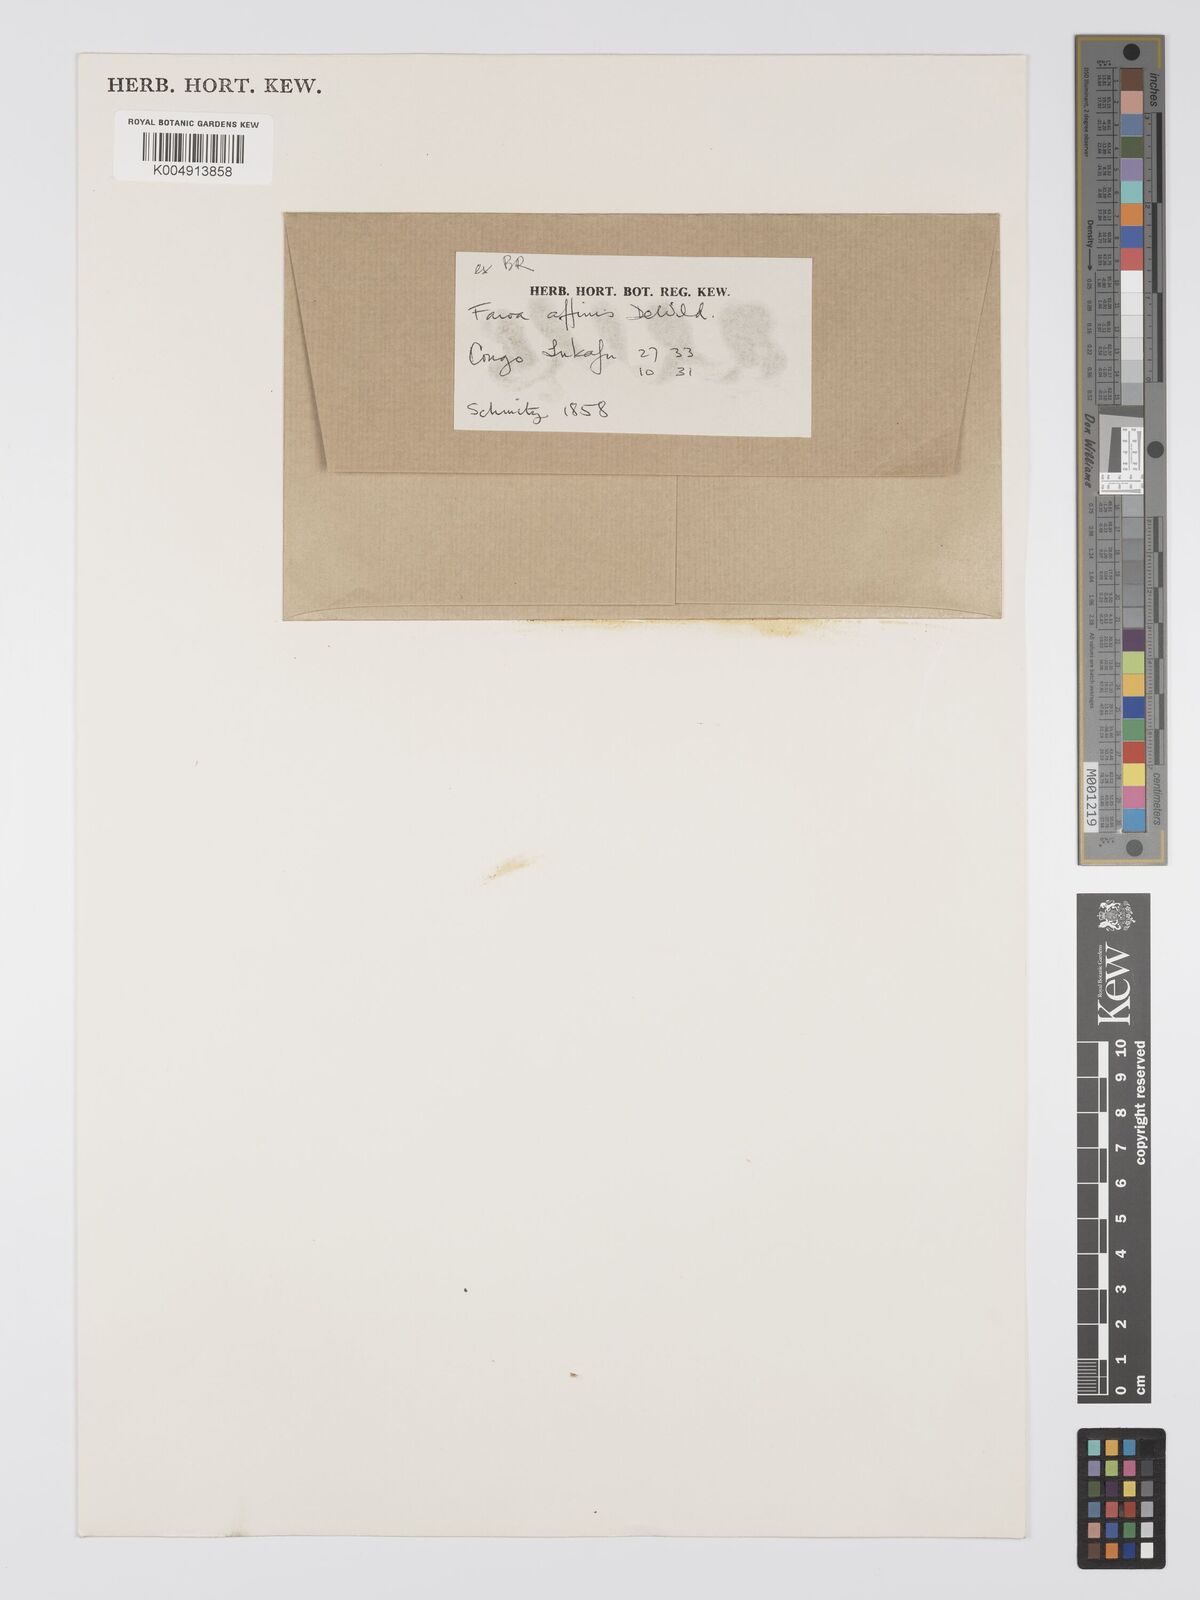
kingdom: Plantae
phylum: Tracheophyta
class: Magnoliopsida
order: Gentianales
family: Gentianaceae
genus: Faroa
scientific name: Faroa affinis
